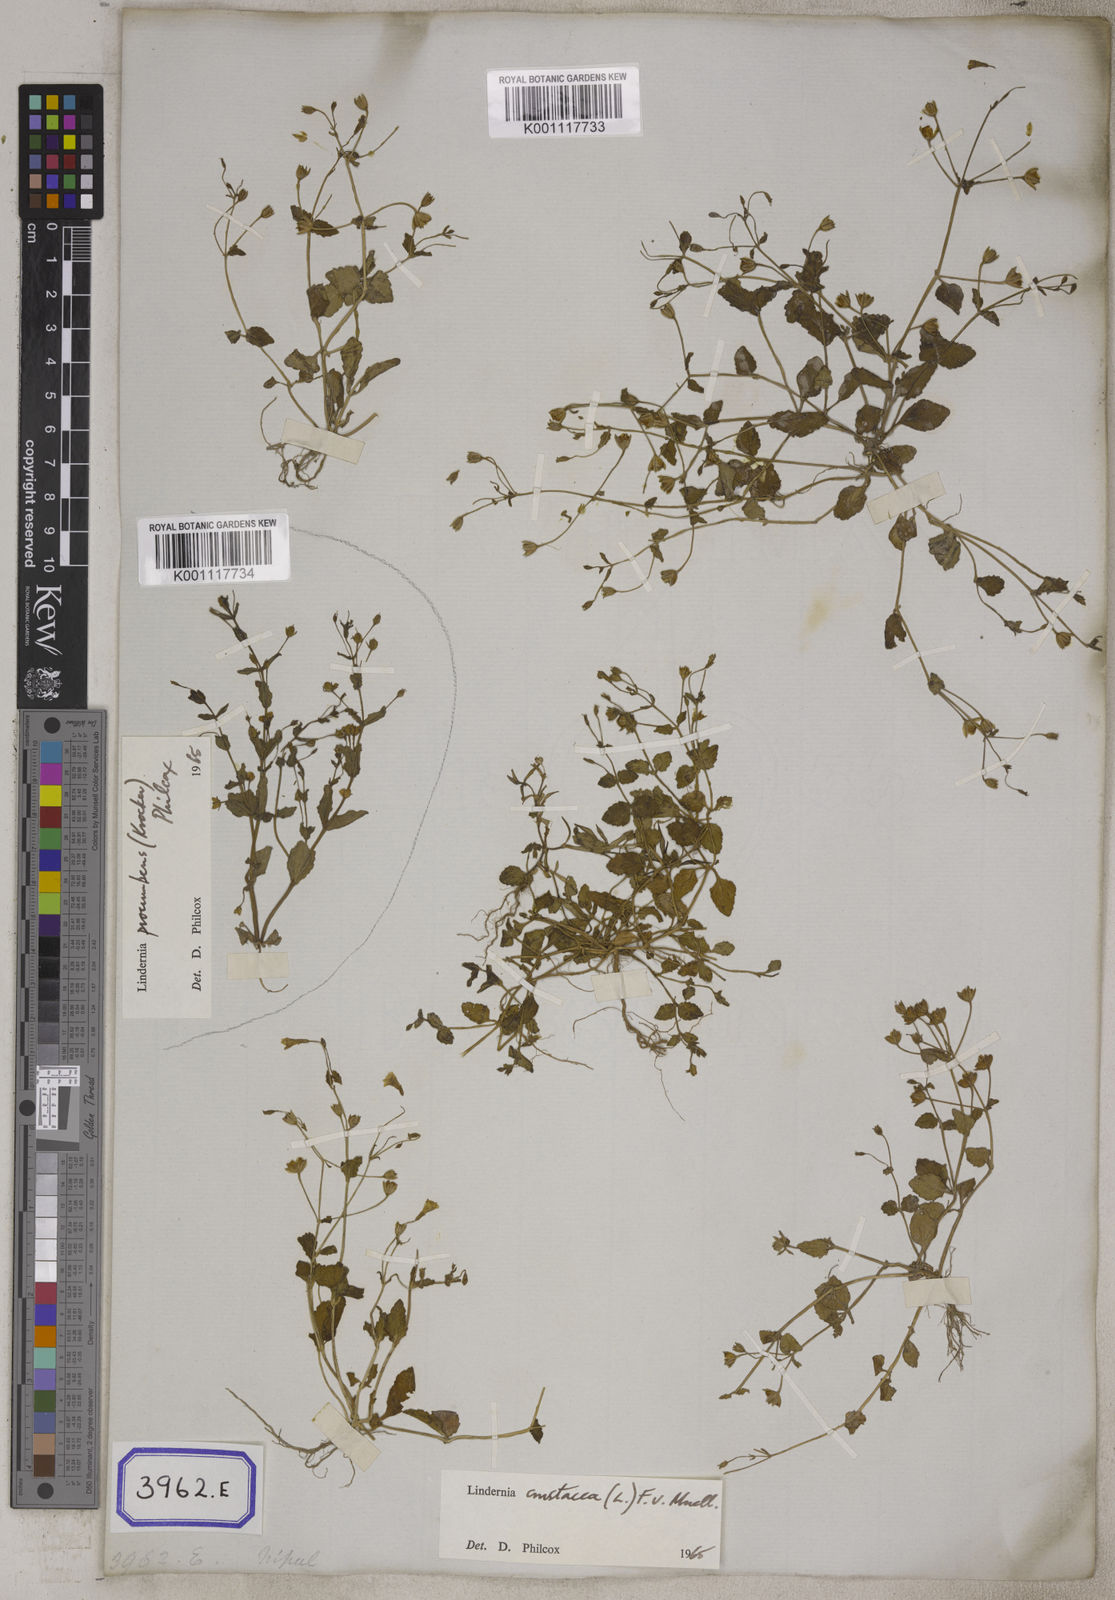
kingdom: Plantae
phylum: Tracheophyta
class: Magnoliopsida
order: Lamiales
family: Linderniaceae
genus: Torenia
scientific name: Torenia crustacea
